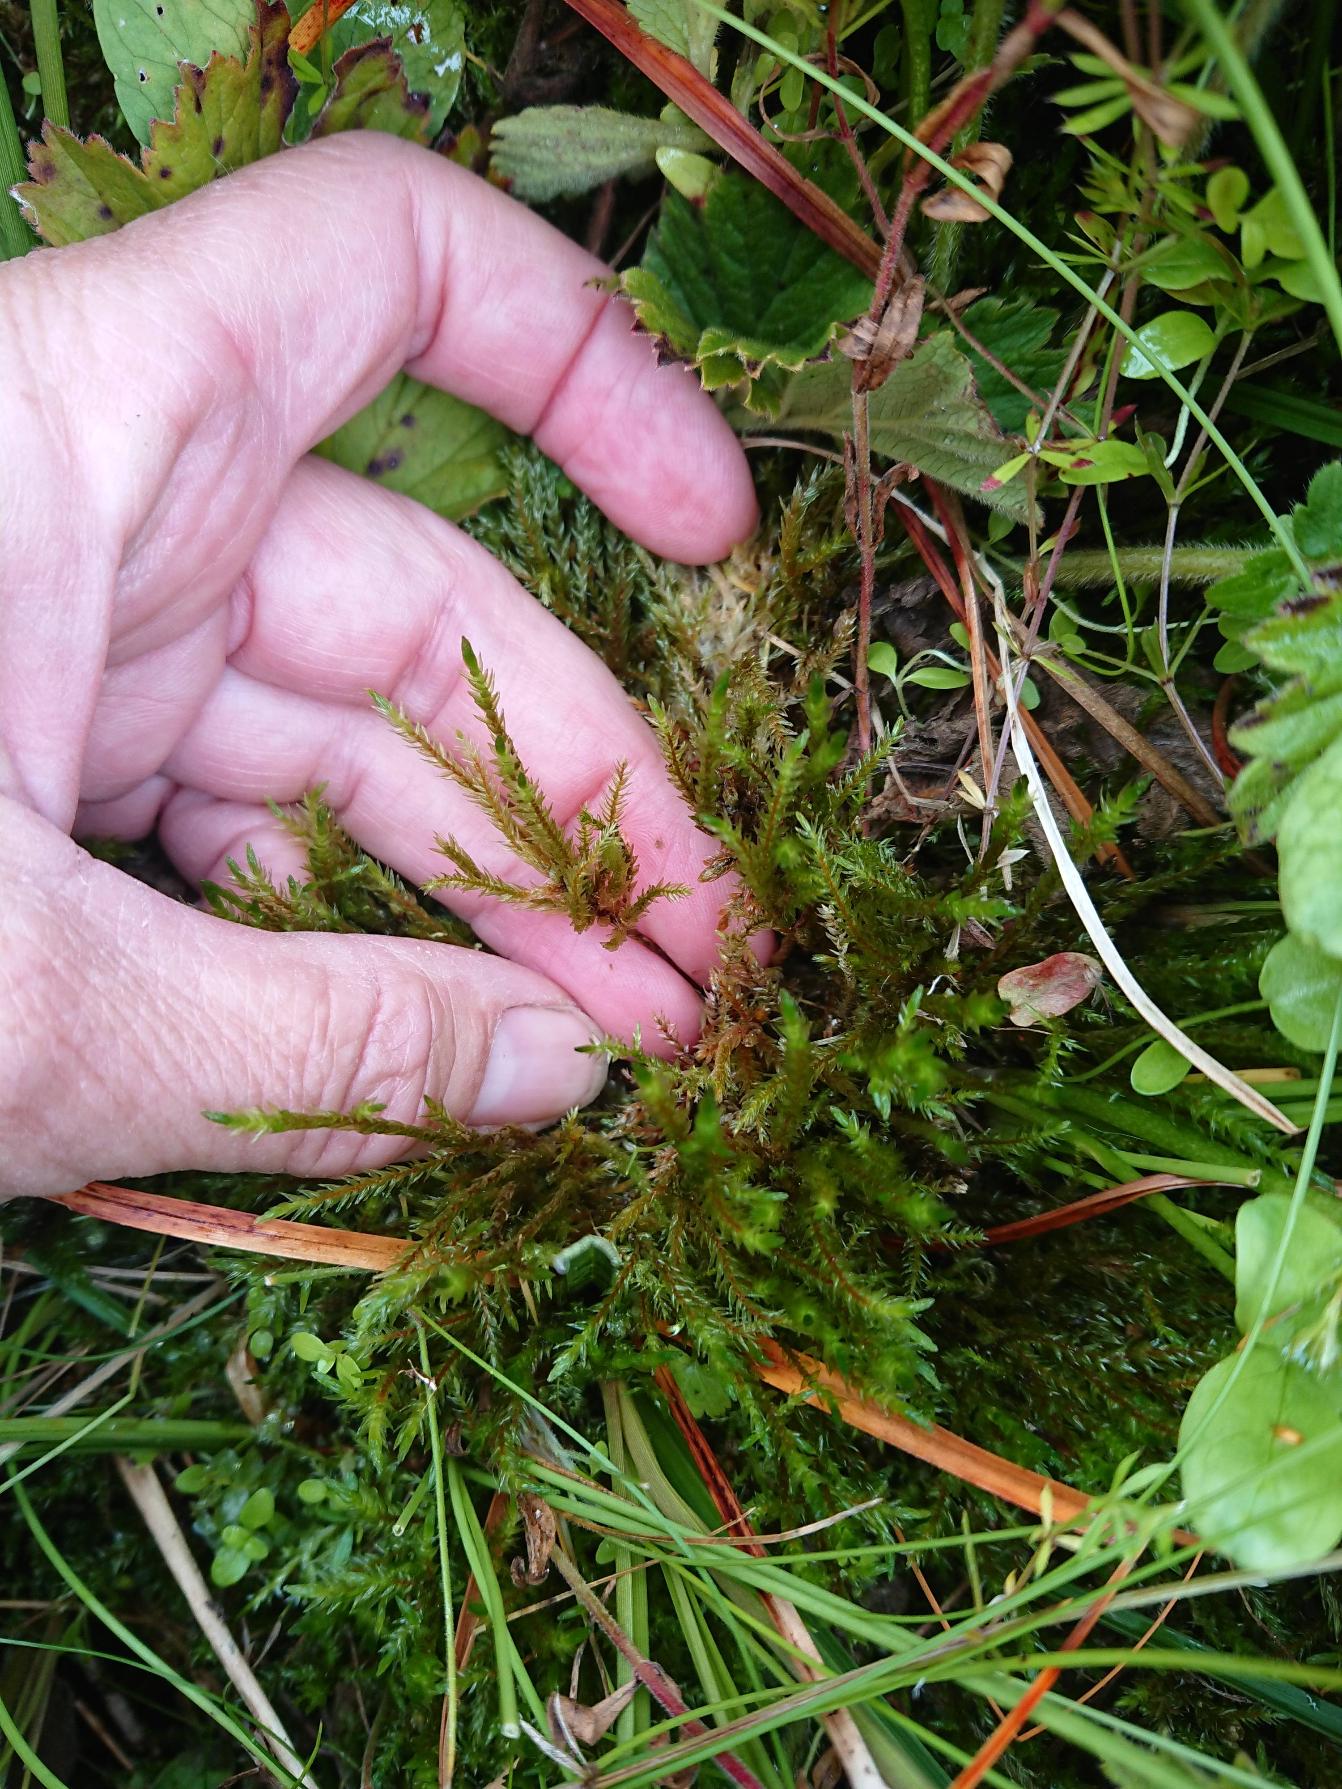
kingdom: Plantae
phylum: Bryophyta
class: Bryopsida
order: Hypnales
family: Climaciaceae
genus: Climacium
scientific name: Climacium dendroides
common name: Stor engkost
